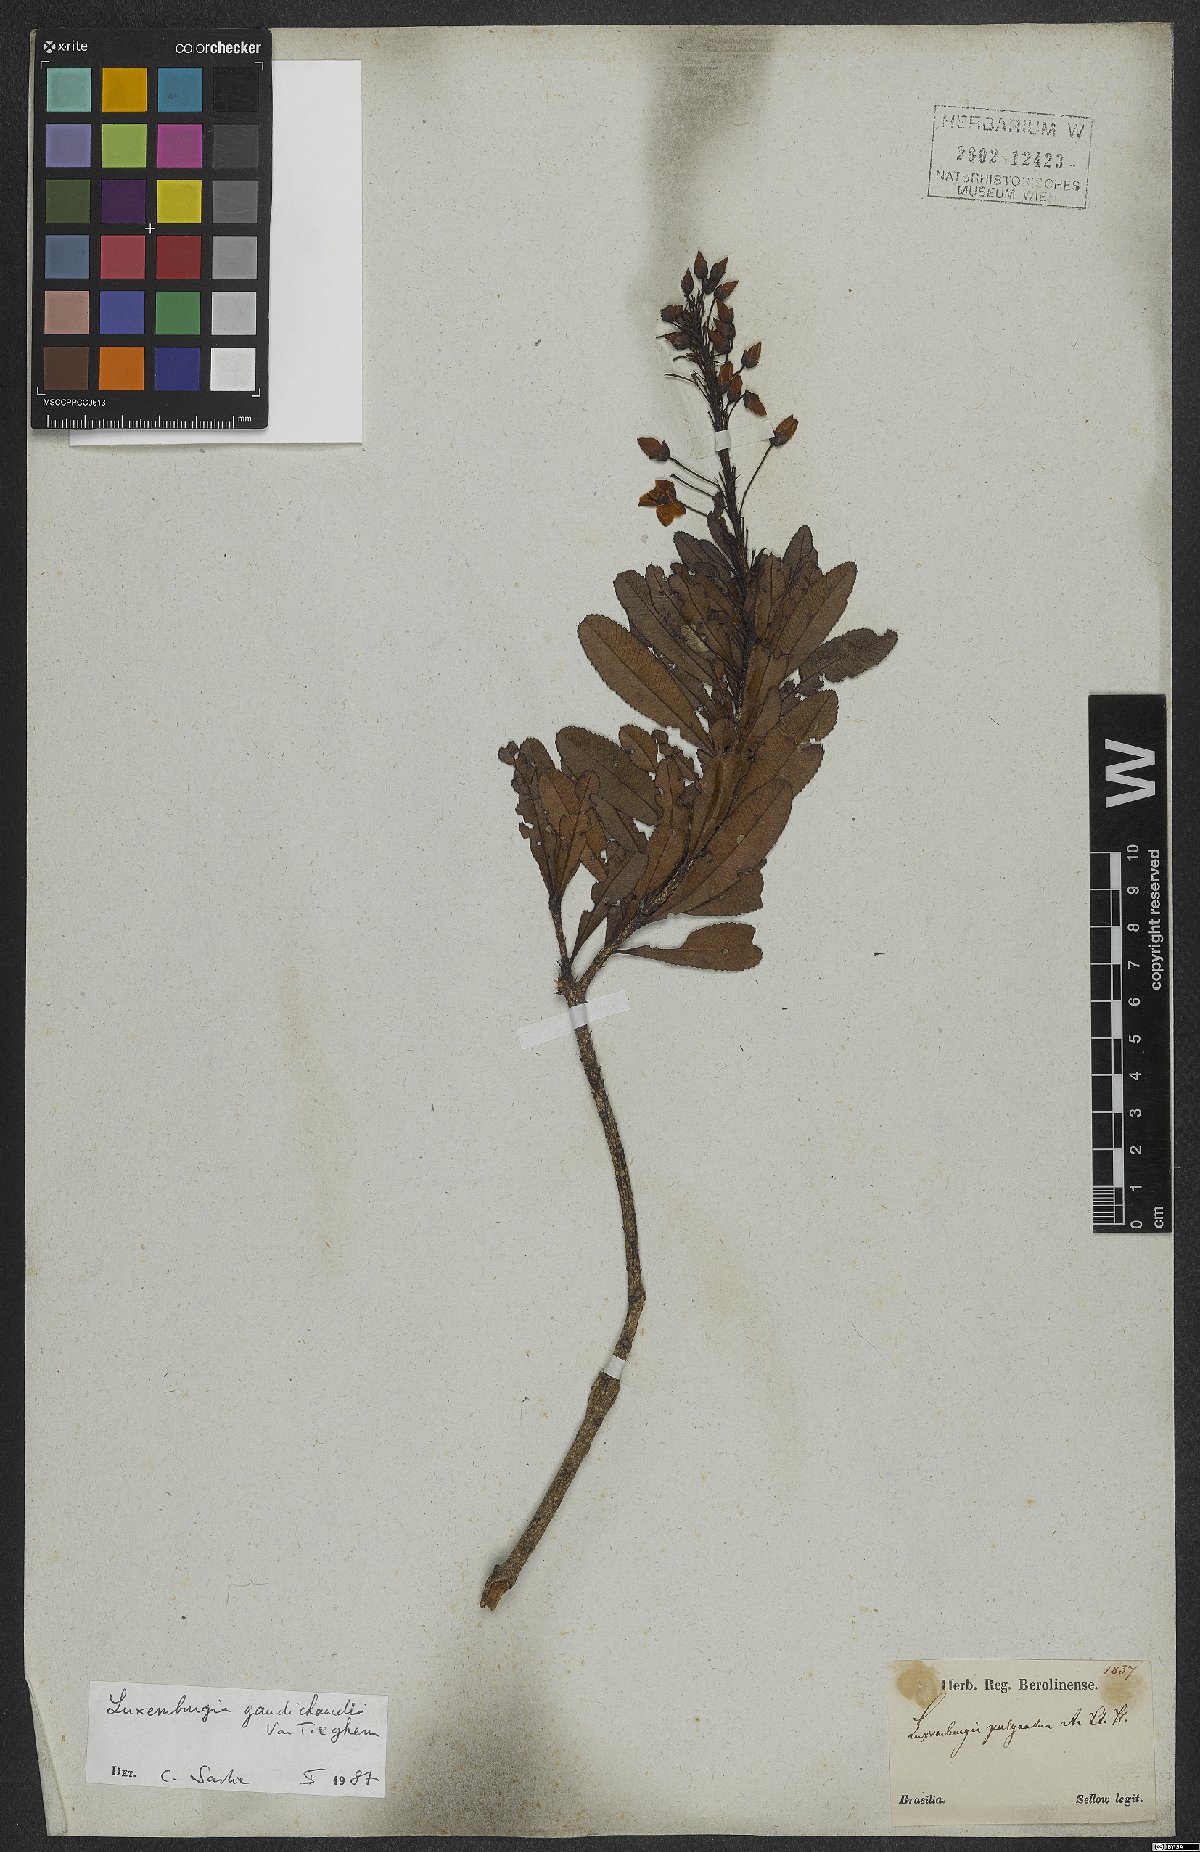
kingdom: Plantae
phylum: Tracheophyta
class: Magnoliopsida
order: Malpighiales
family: Ochnaceae
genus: Luxemburgia
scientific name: Luxemburgia gaudichaudii
